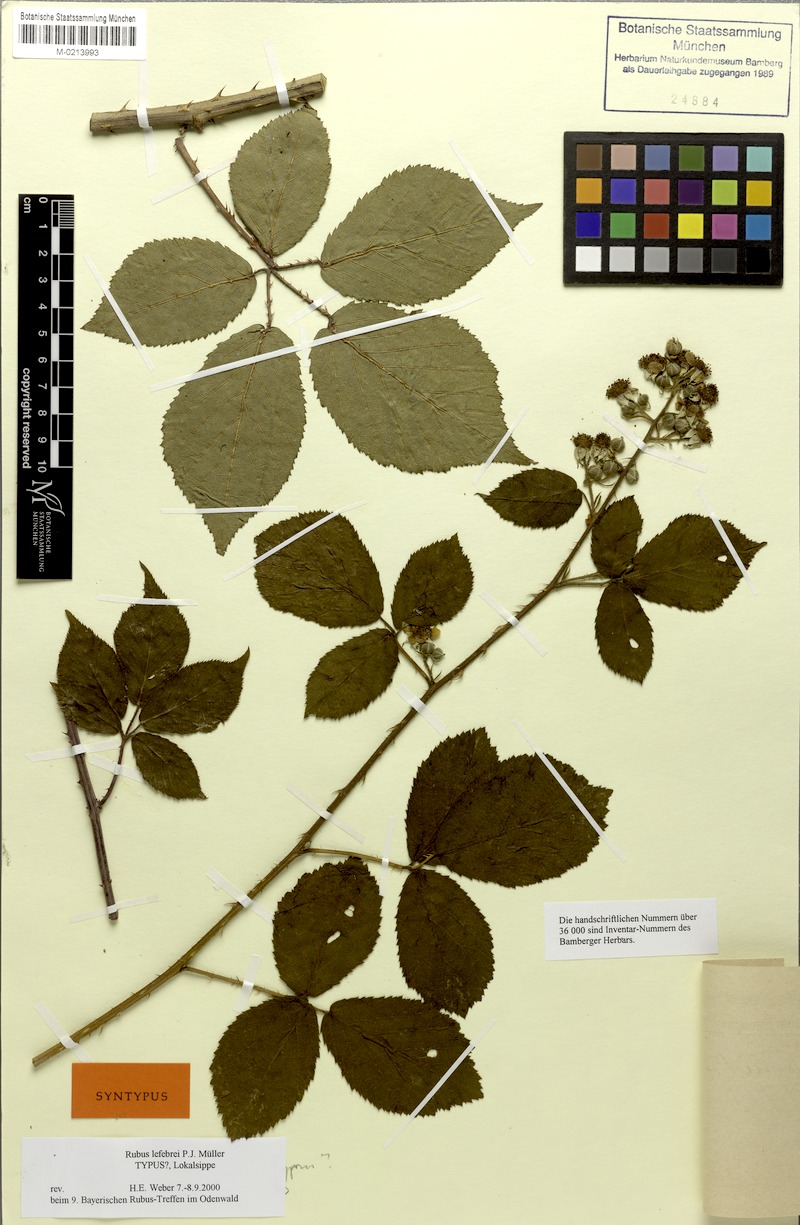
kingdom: Plantae
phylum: Tracheophyta
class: Magnoliopsida
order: Rosales
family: Rosaceae
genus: Rubus
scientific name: Rubus lefevrei
